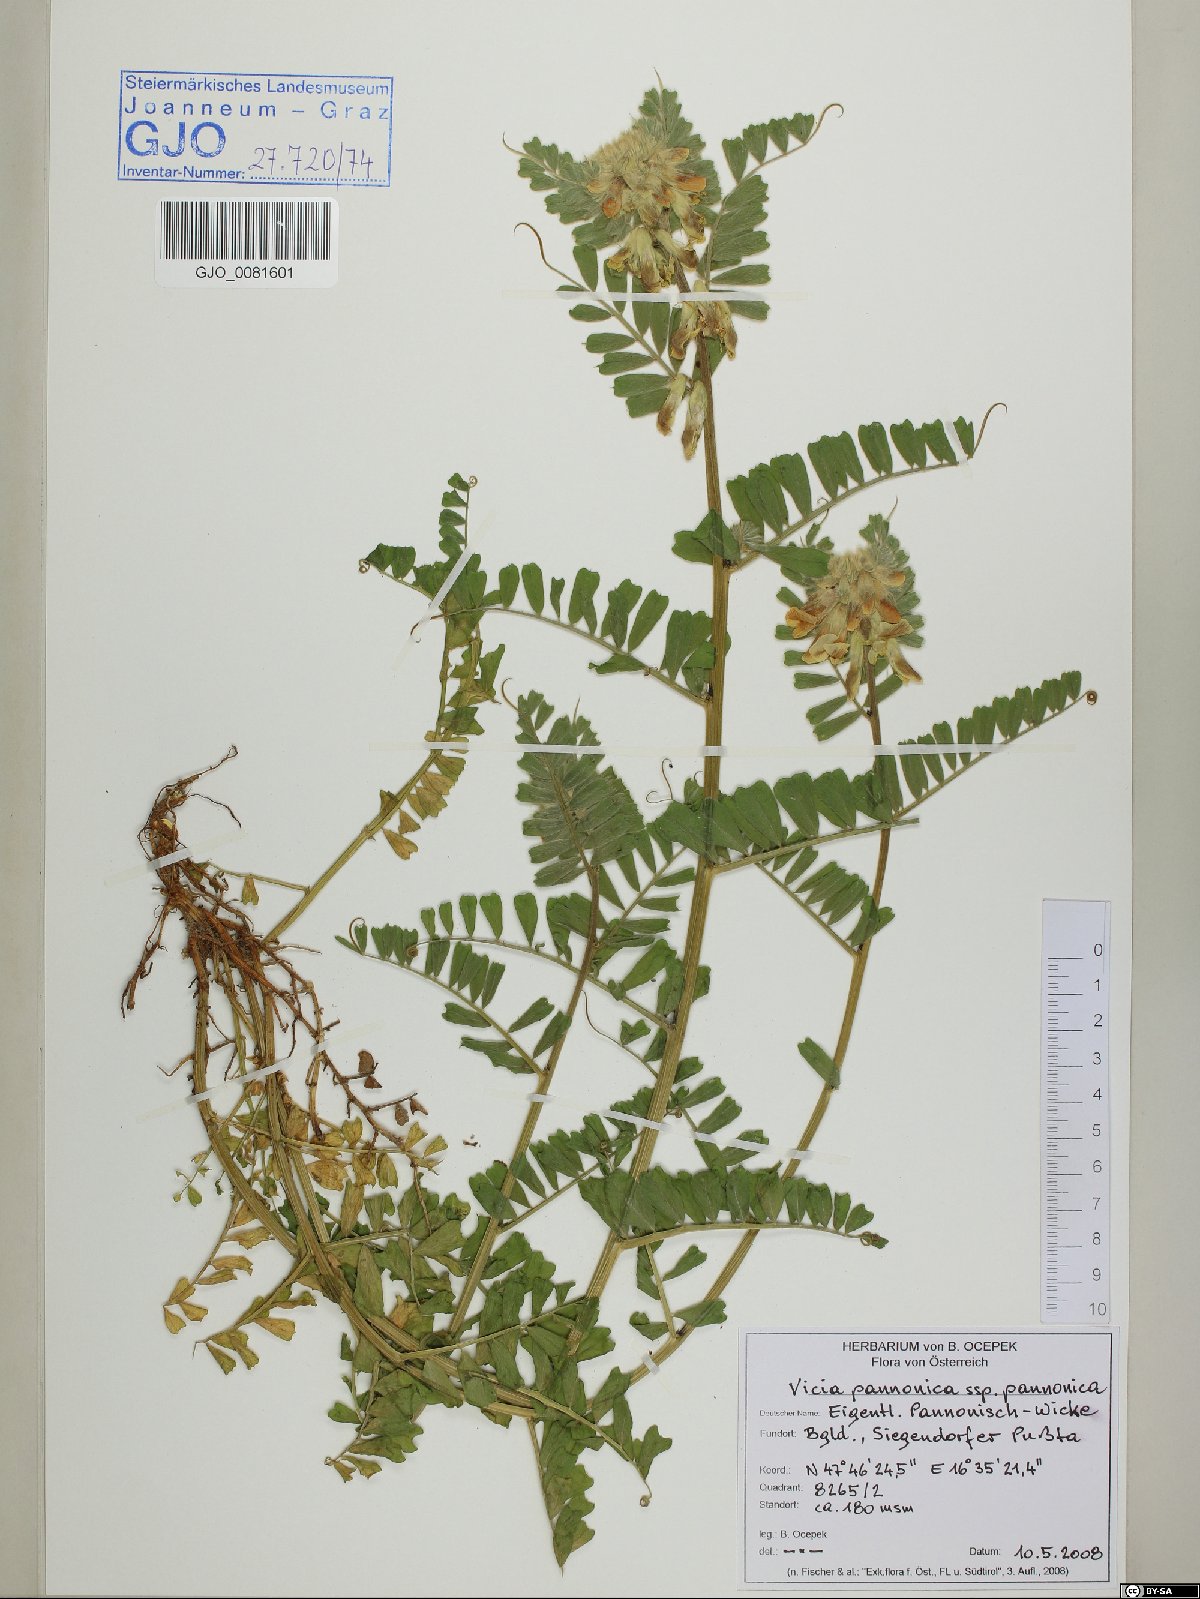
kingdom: Plantae
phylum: Tracheophyta
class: Magnoliopsida
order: Fabales
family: Fabaceae
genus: Vicia
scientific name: Vicia pannonica
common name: Hungarian vetch
